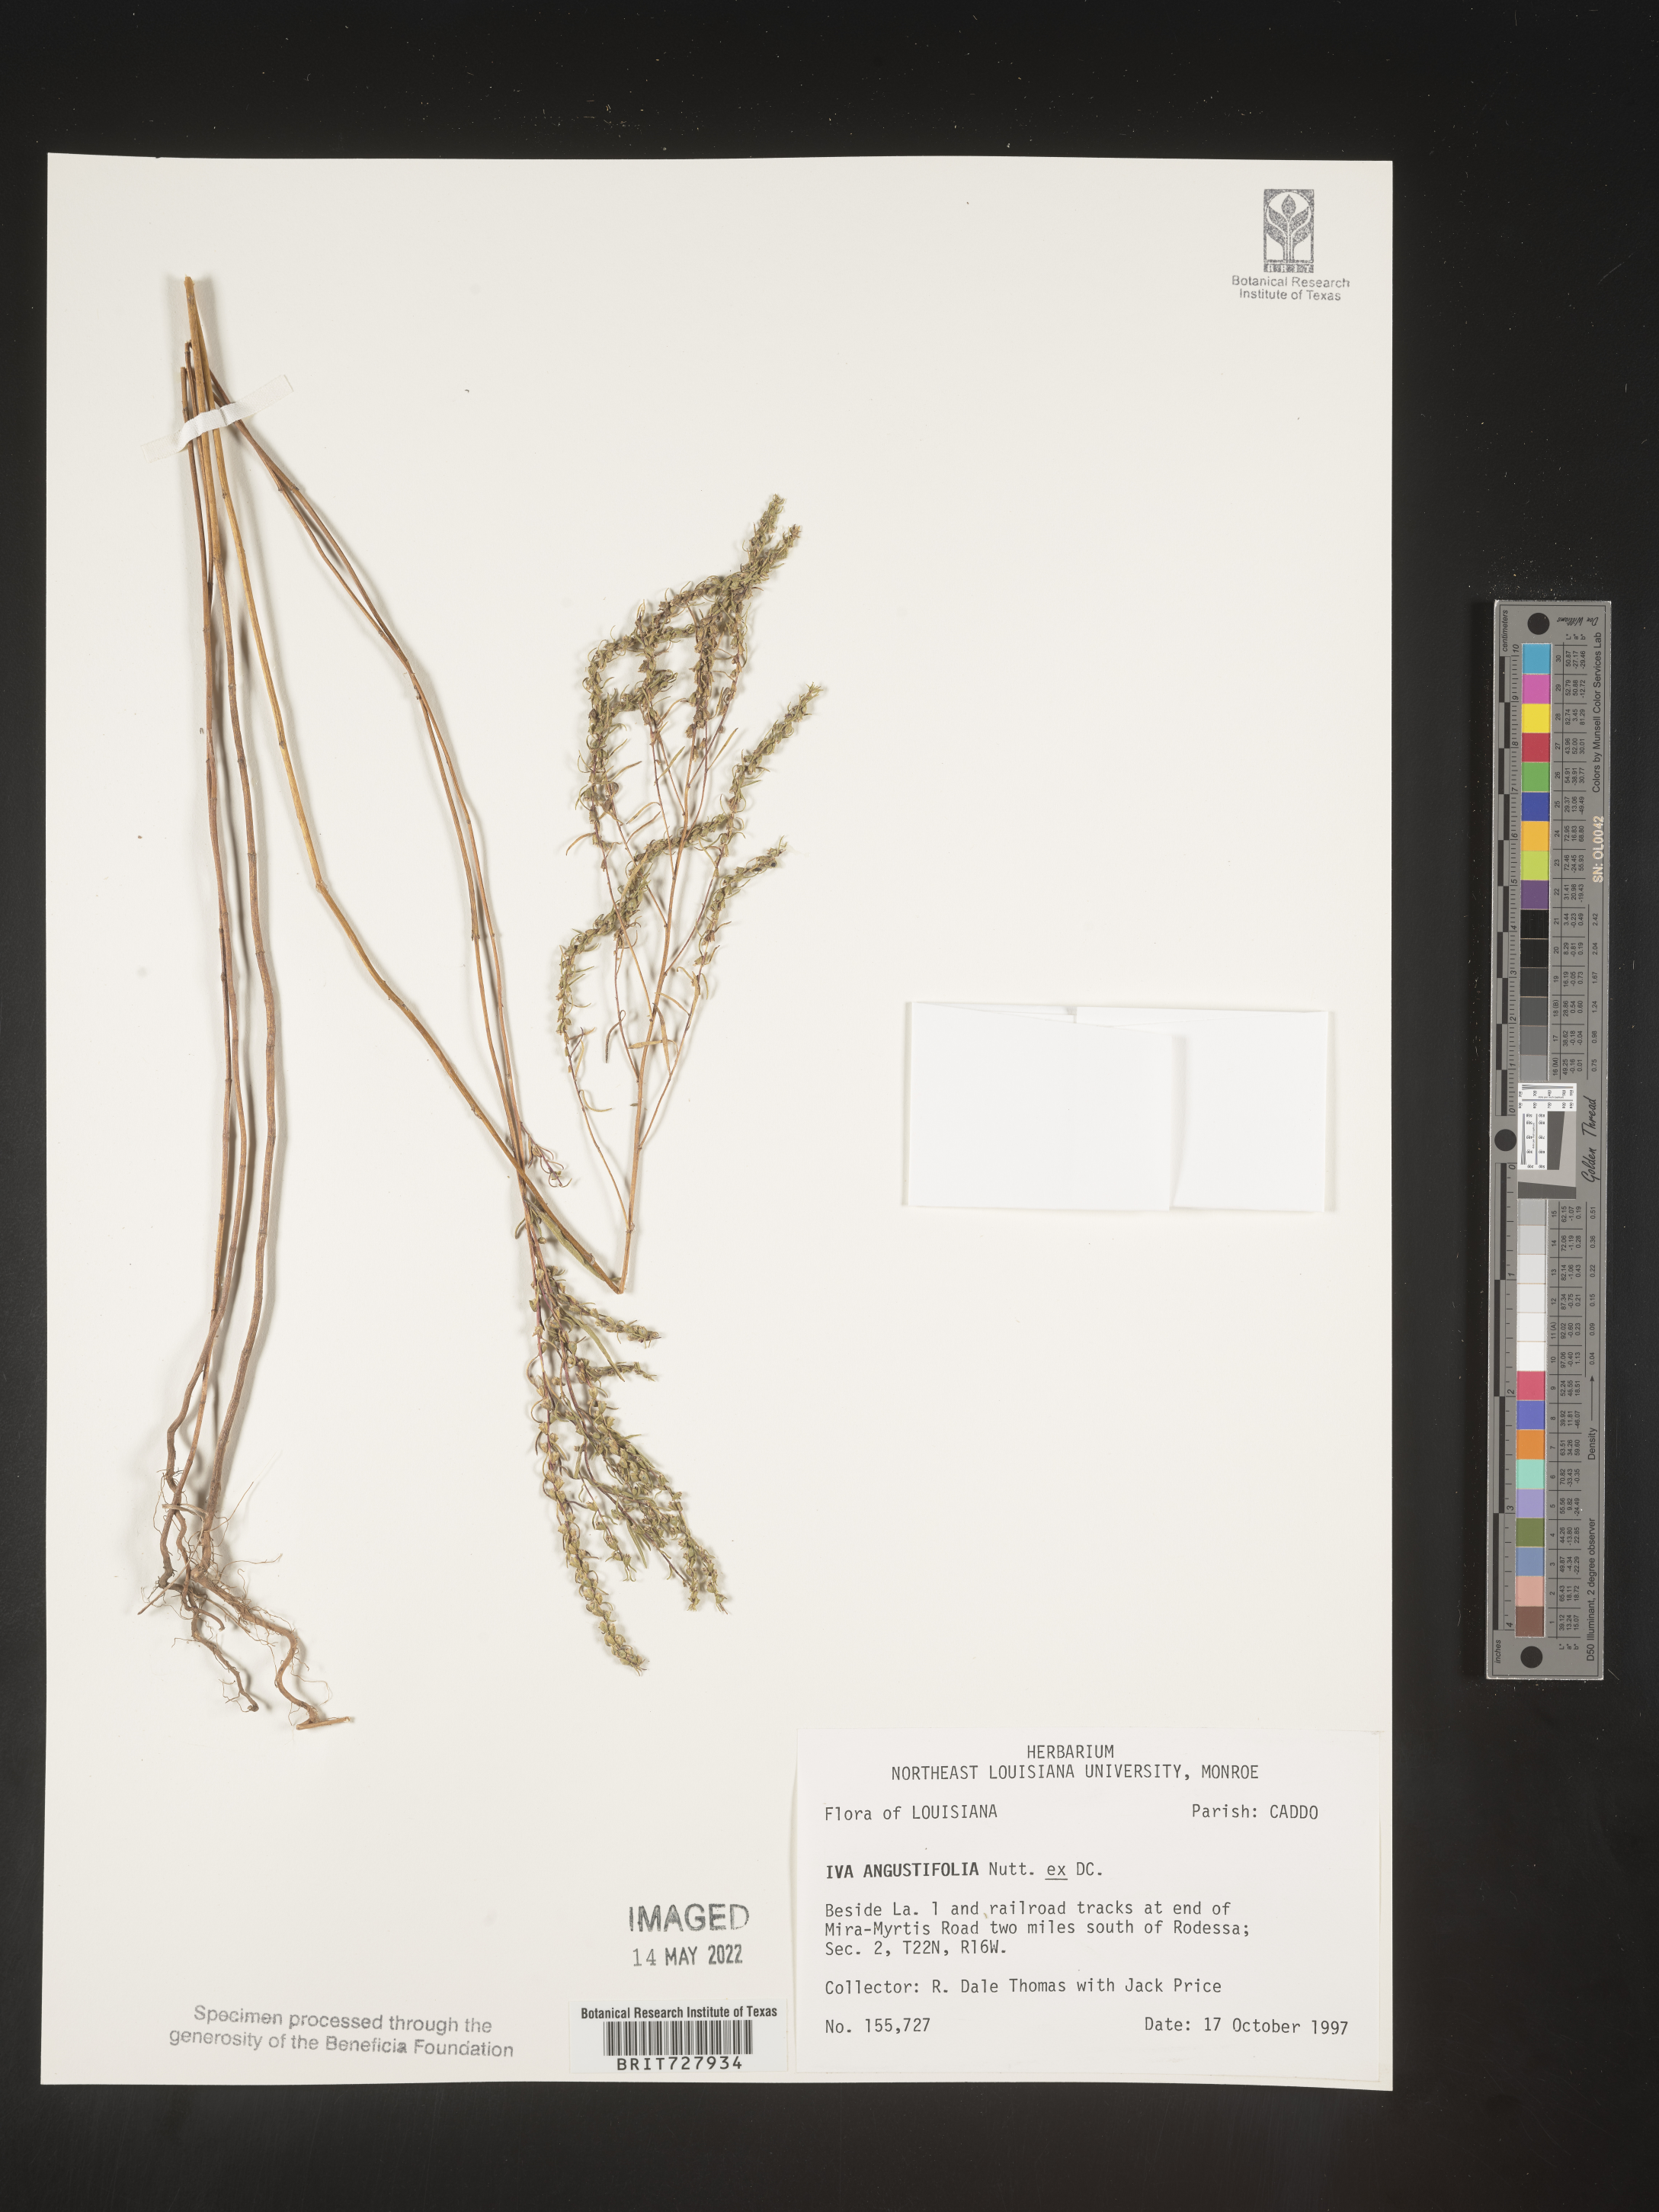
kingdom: Plantae
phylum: Tracheophyta
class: Magnoliopsida
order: Asterales
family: Asteraceae
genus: Iva
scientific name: Iva asperifolia
